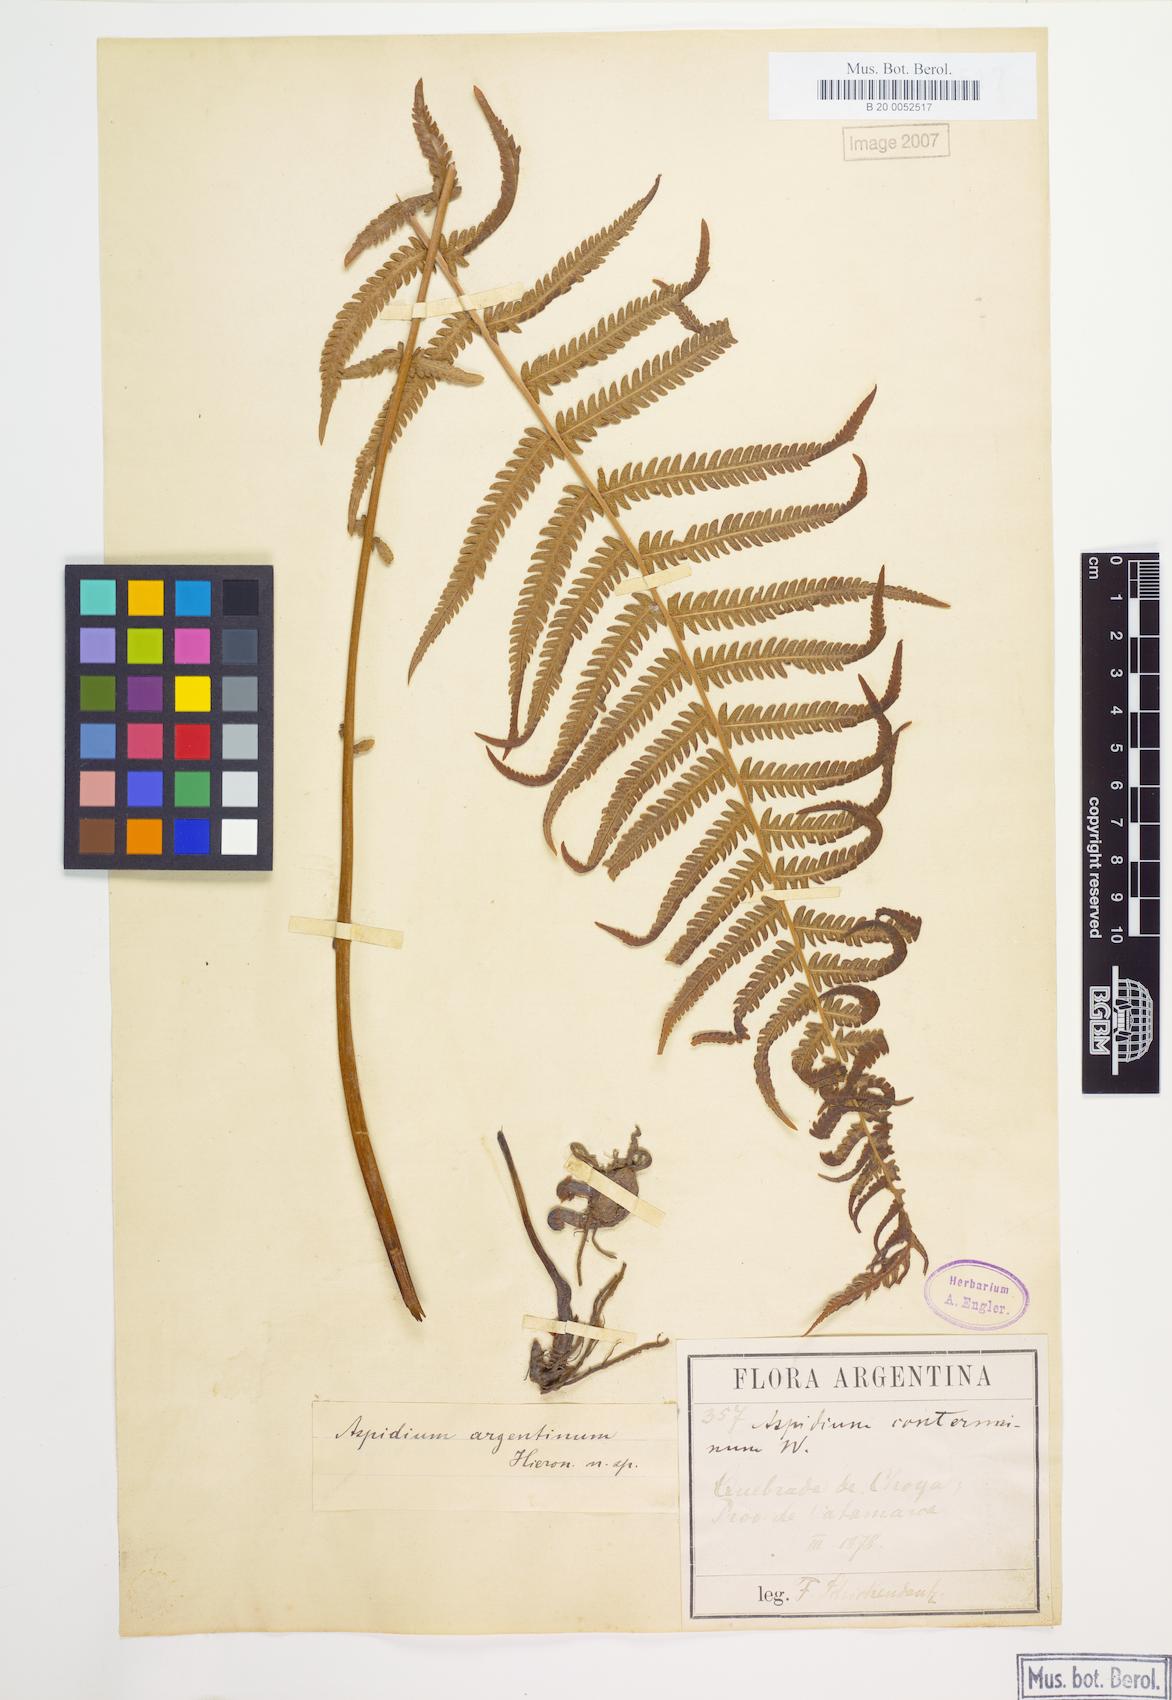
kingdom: Plantae
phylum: Tracheophyta
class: Polypodiopsida
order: Polypodiales
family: Thelypteridaceae
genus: Amauropelta
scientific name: Amauropelta argentina
